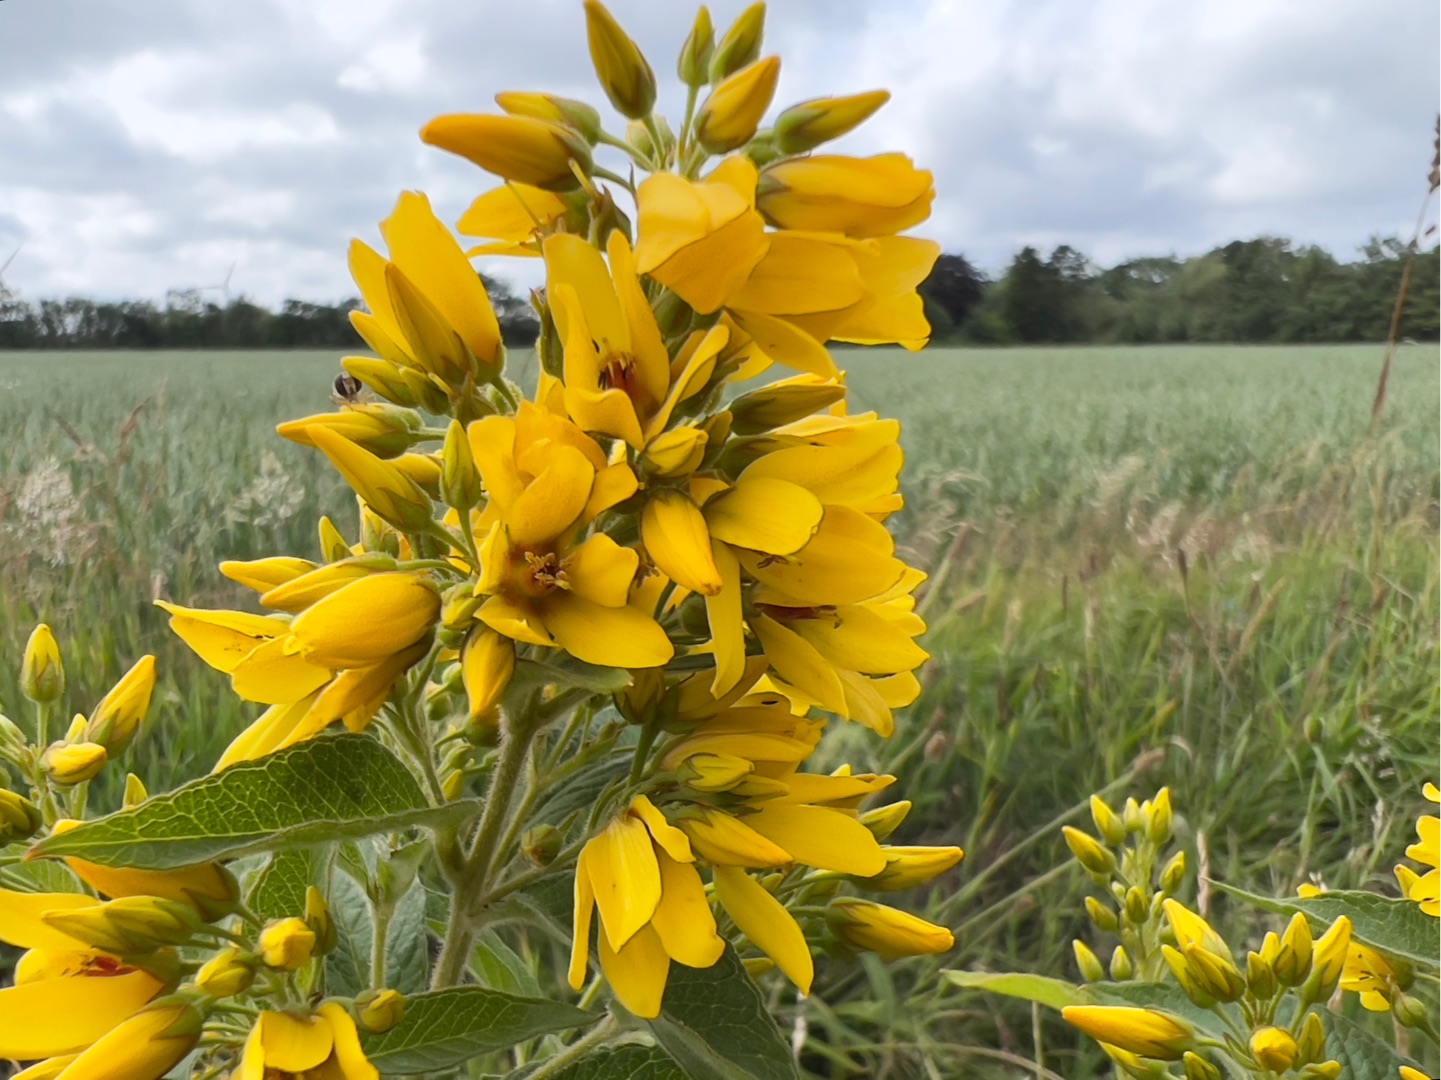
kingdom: Plantae
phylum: Tracheophyta
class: Magnoliopsida
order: Ericales
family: Primulaceae
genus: Lysimachia
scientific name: Lysimachia vulgaris
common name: Almindelig fredløs
